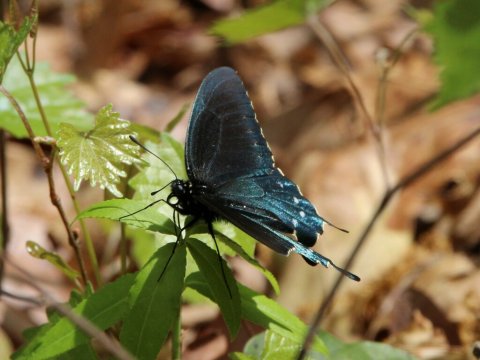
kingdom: Animalia
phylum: Arthropoda
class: Insecta
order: Lepidoptera
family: Papilionidae
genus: Battus
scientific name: Battus philenor
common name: Pipevine Swallowtail
